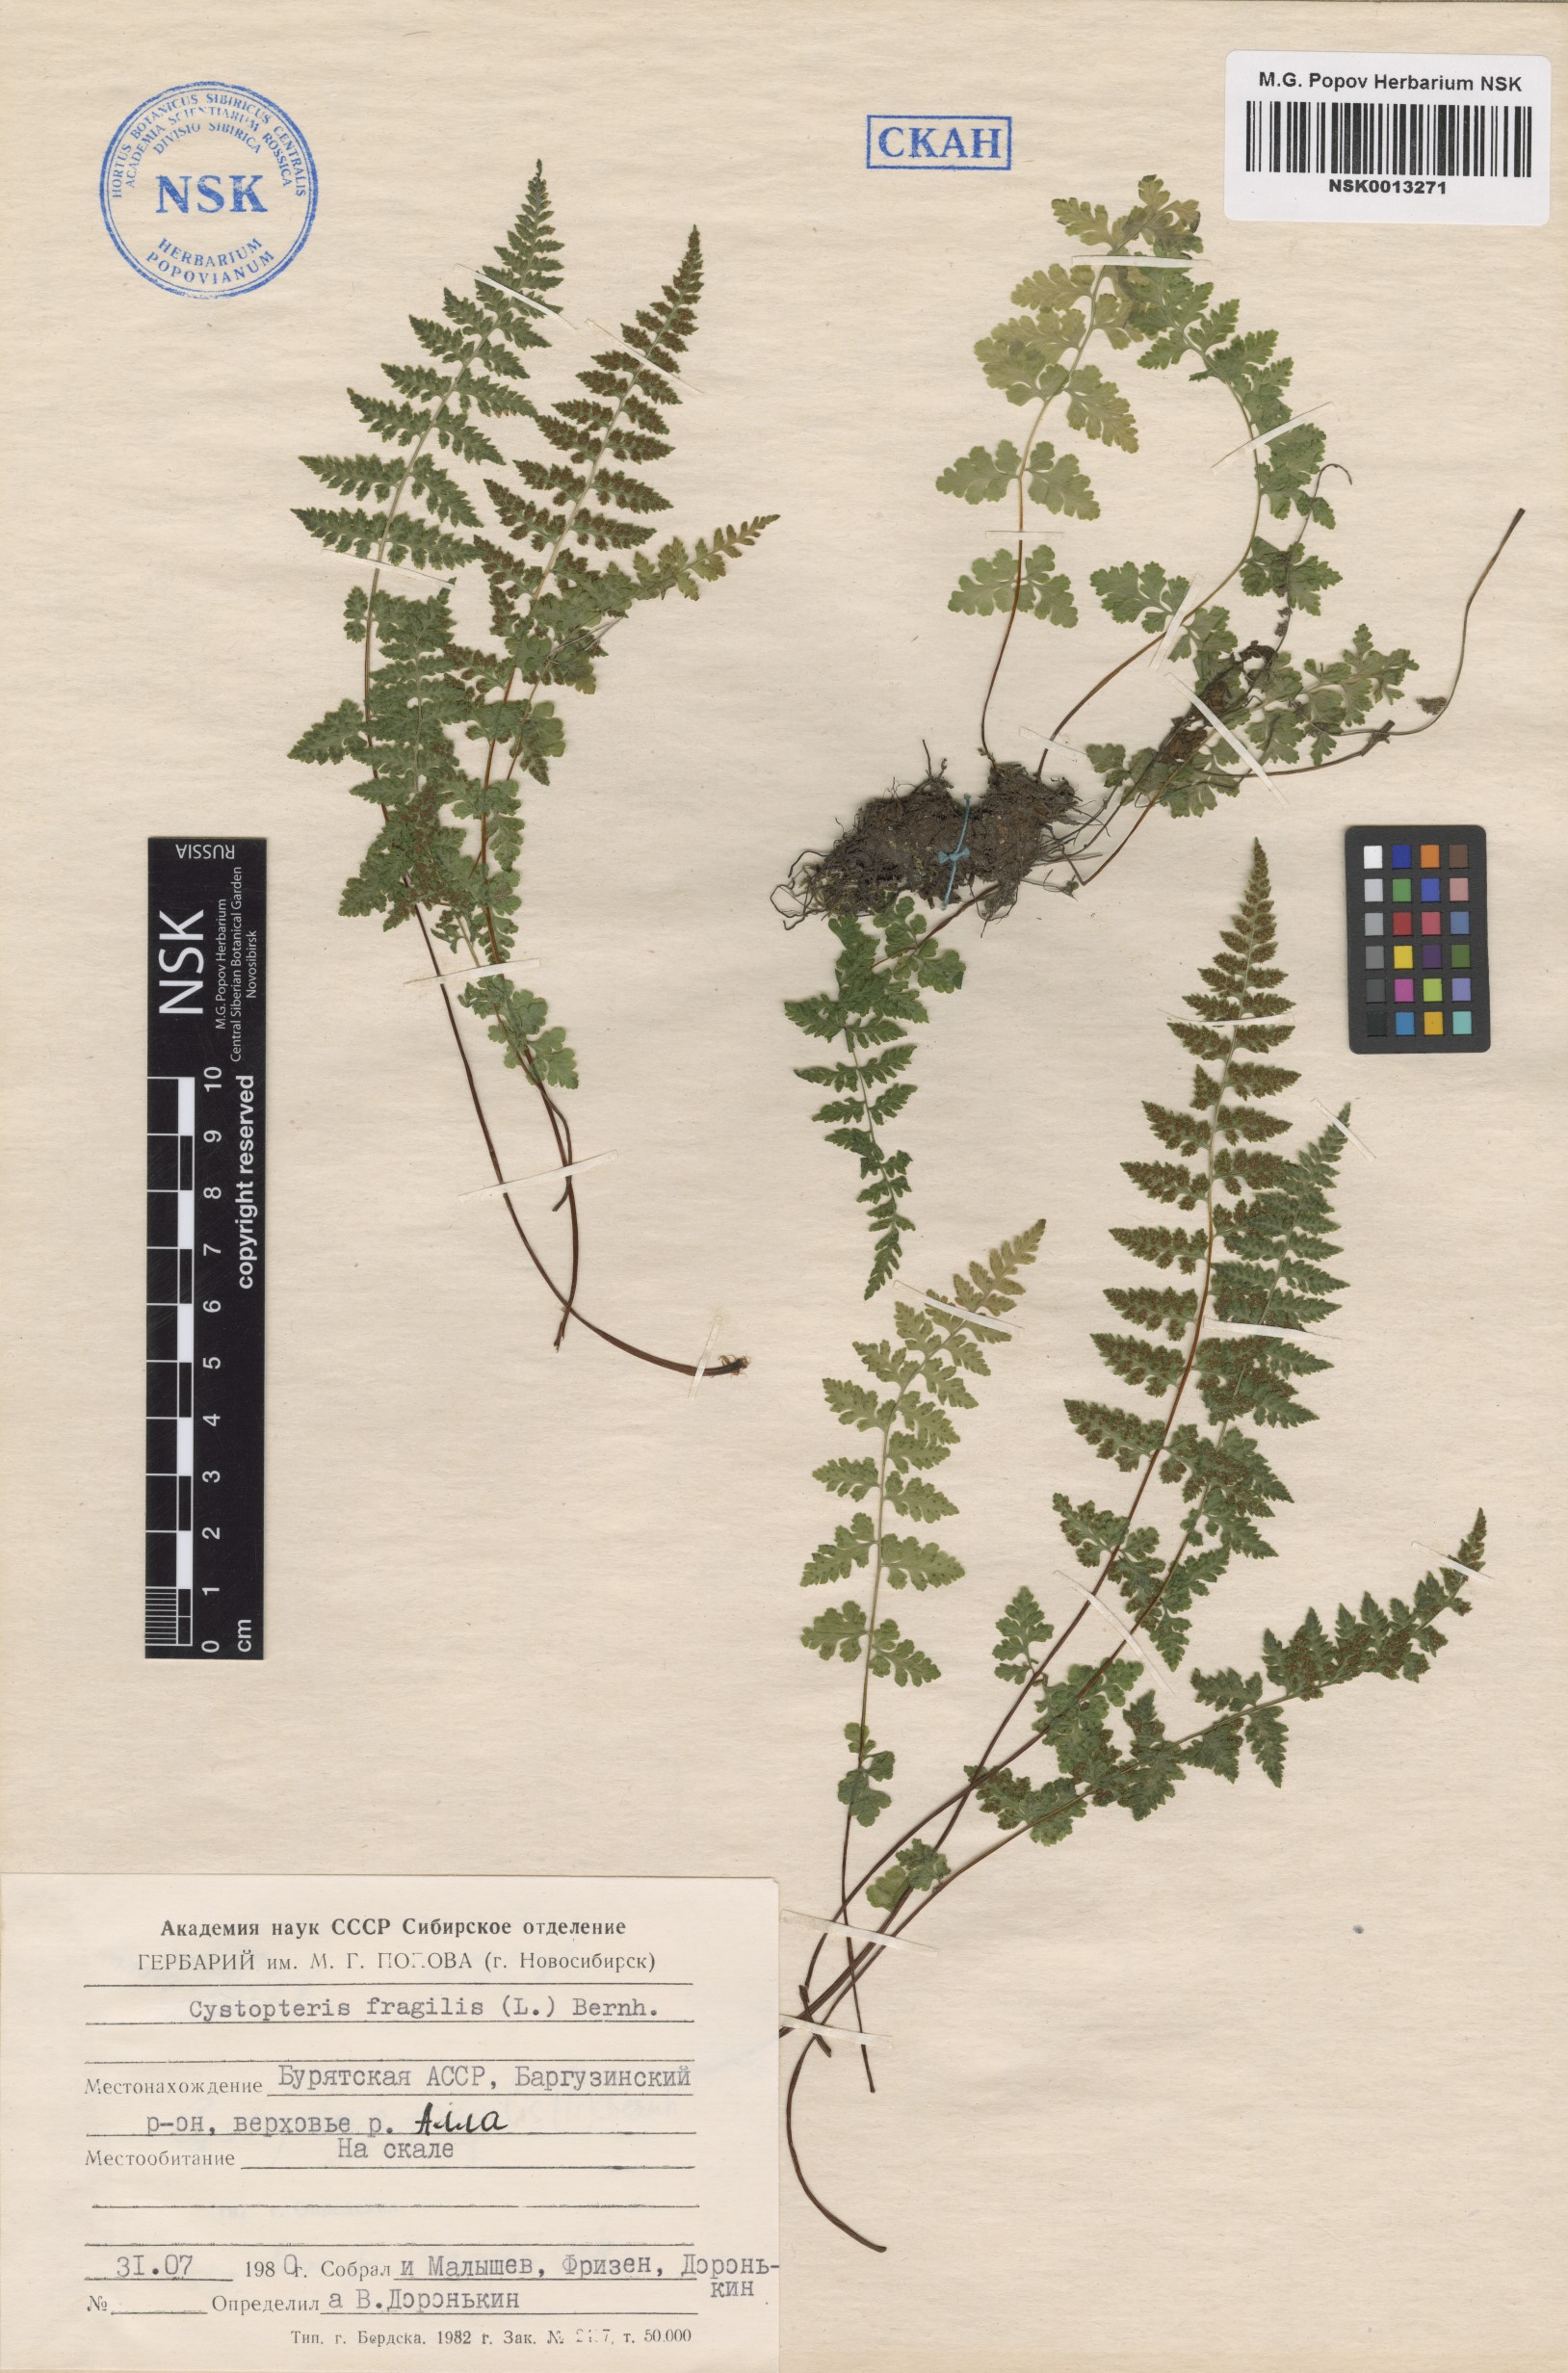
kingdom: Plantae
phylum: Tracheophyta
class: Polypodiopsida
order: Polypodiales
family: Cystopteridaceae
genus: Cystopteris
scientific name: Cystopteris fragilis
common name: Brittle bladder fern
